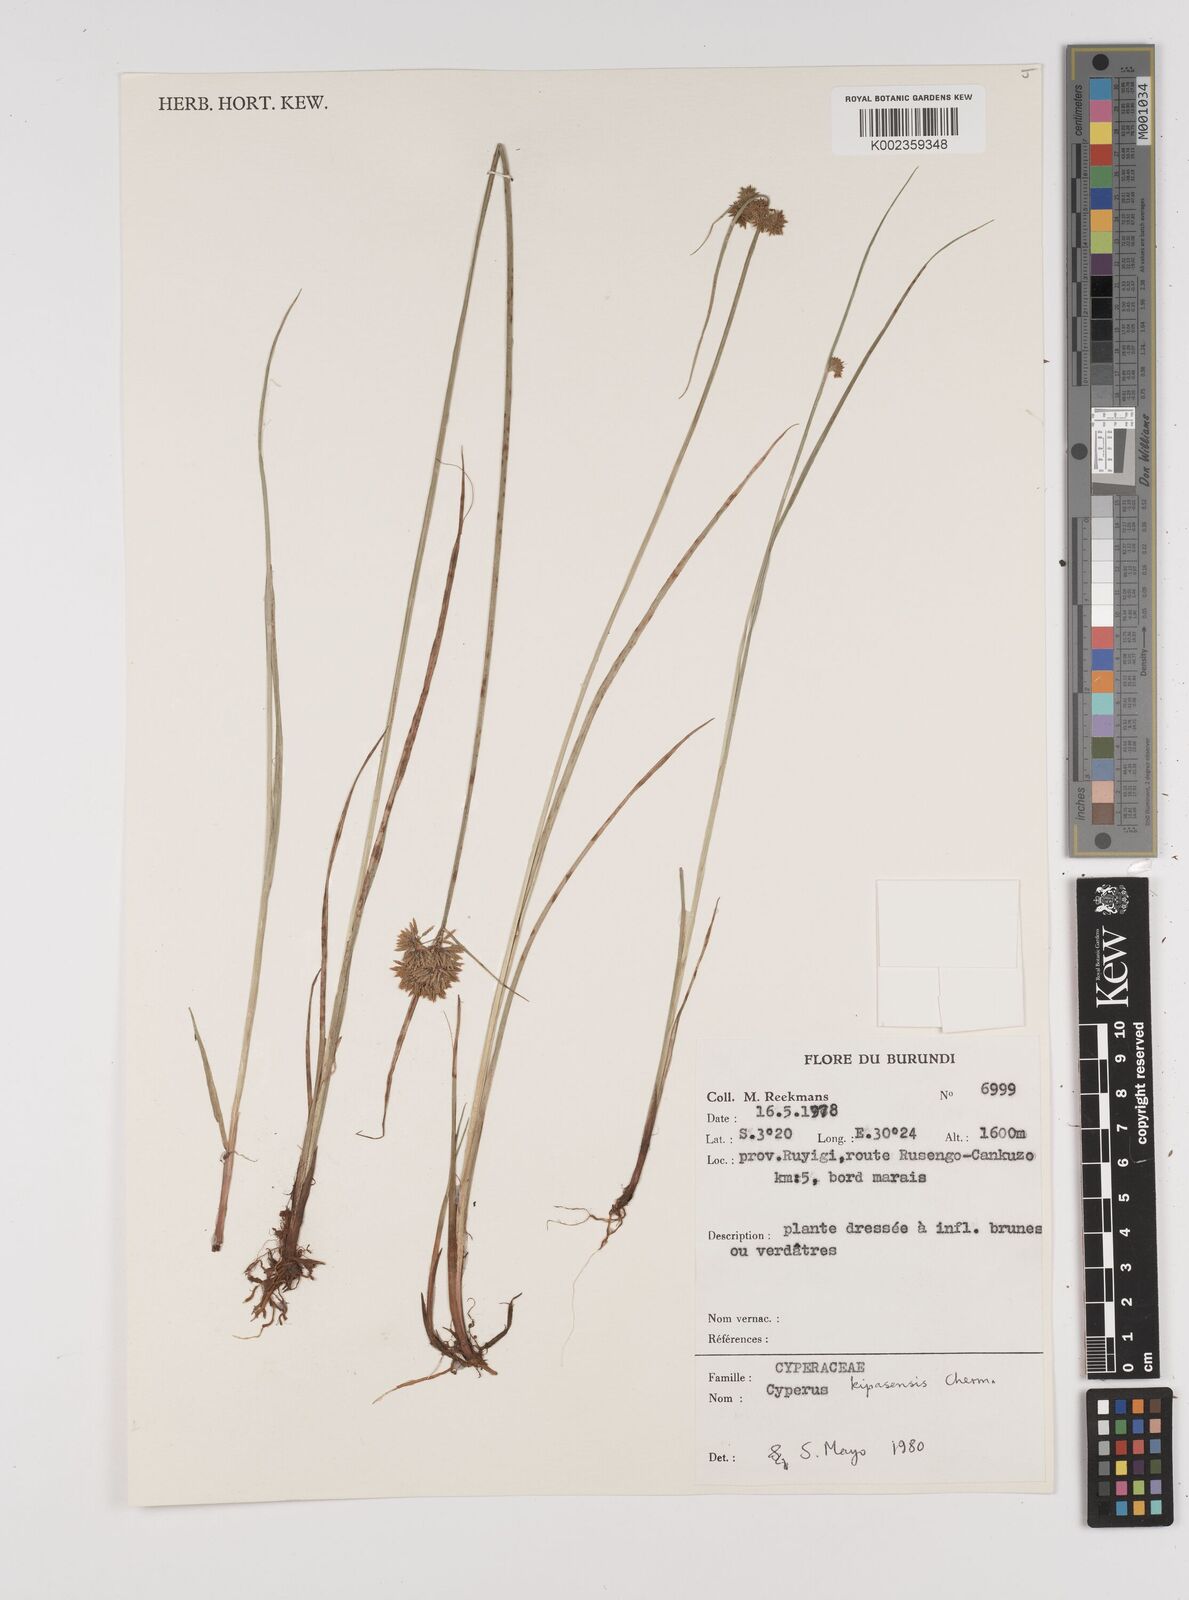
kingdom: Plantae
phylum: Tracheophyta
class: Liliopsida
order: Poales
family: Cyperaceae
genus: Cyperus
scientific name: Cyperus kipasensis
